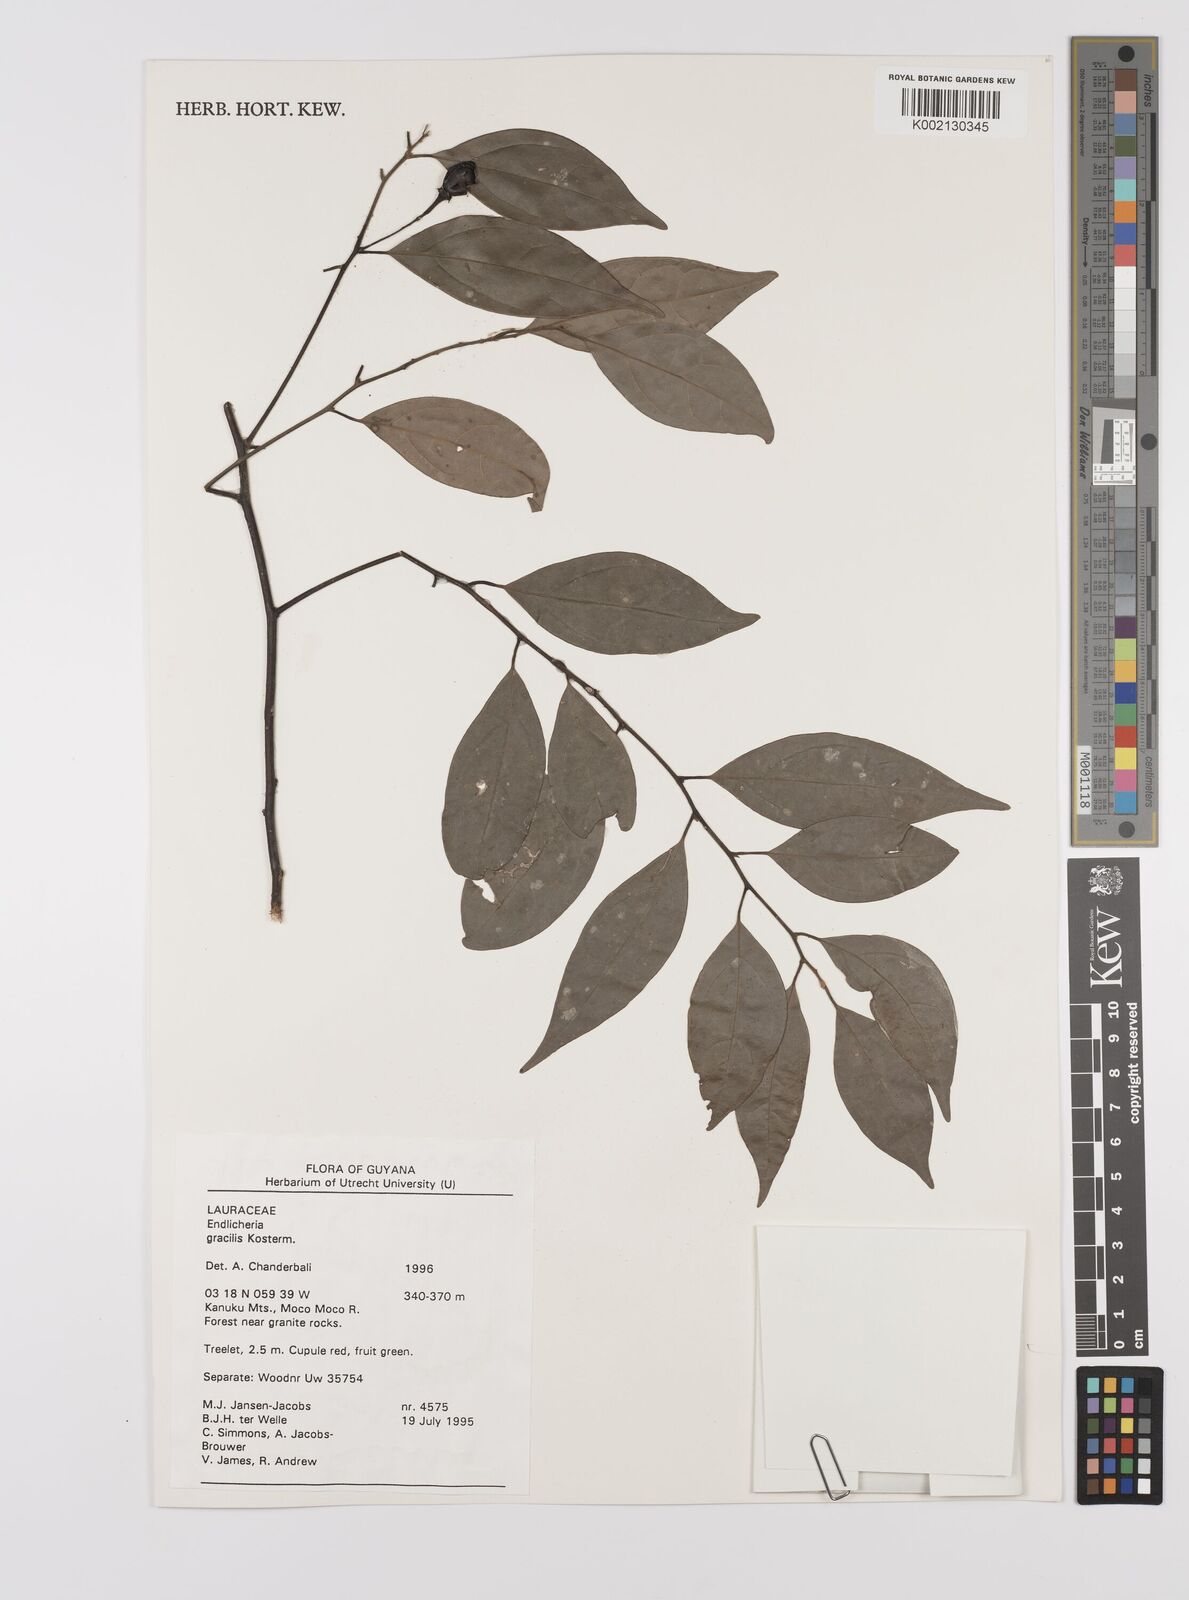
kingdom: Plantae
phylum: Tracheophyta
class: Magnoliopsida
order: Laurales
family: Lauraceae
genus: Endlicheria
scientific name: Endlicheria gracilis
